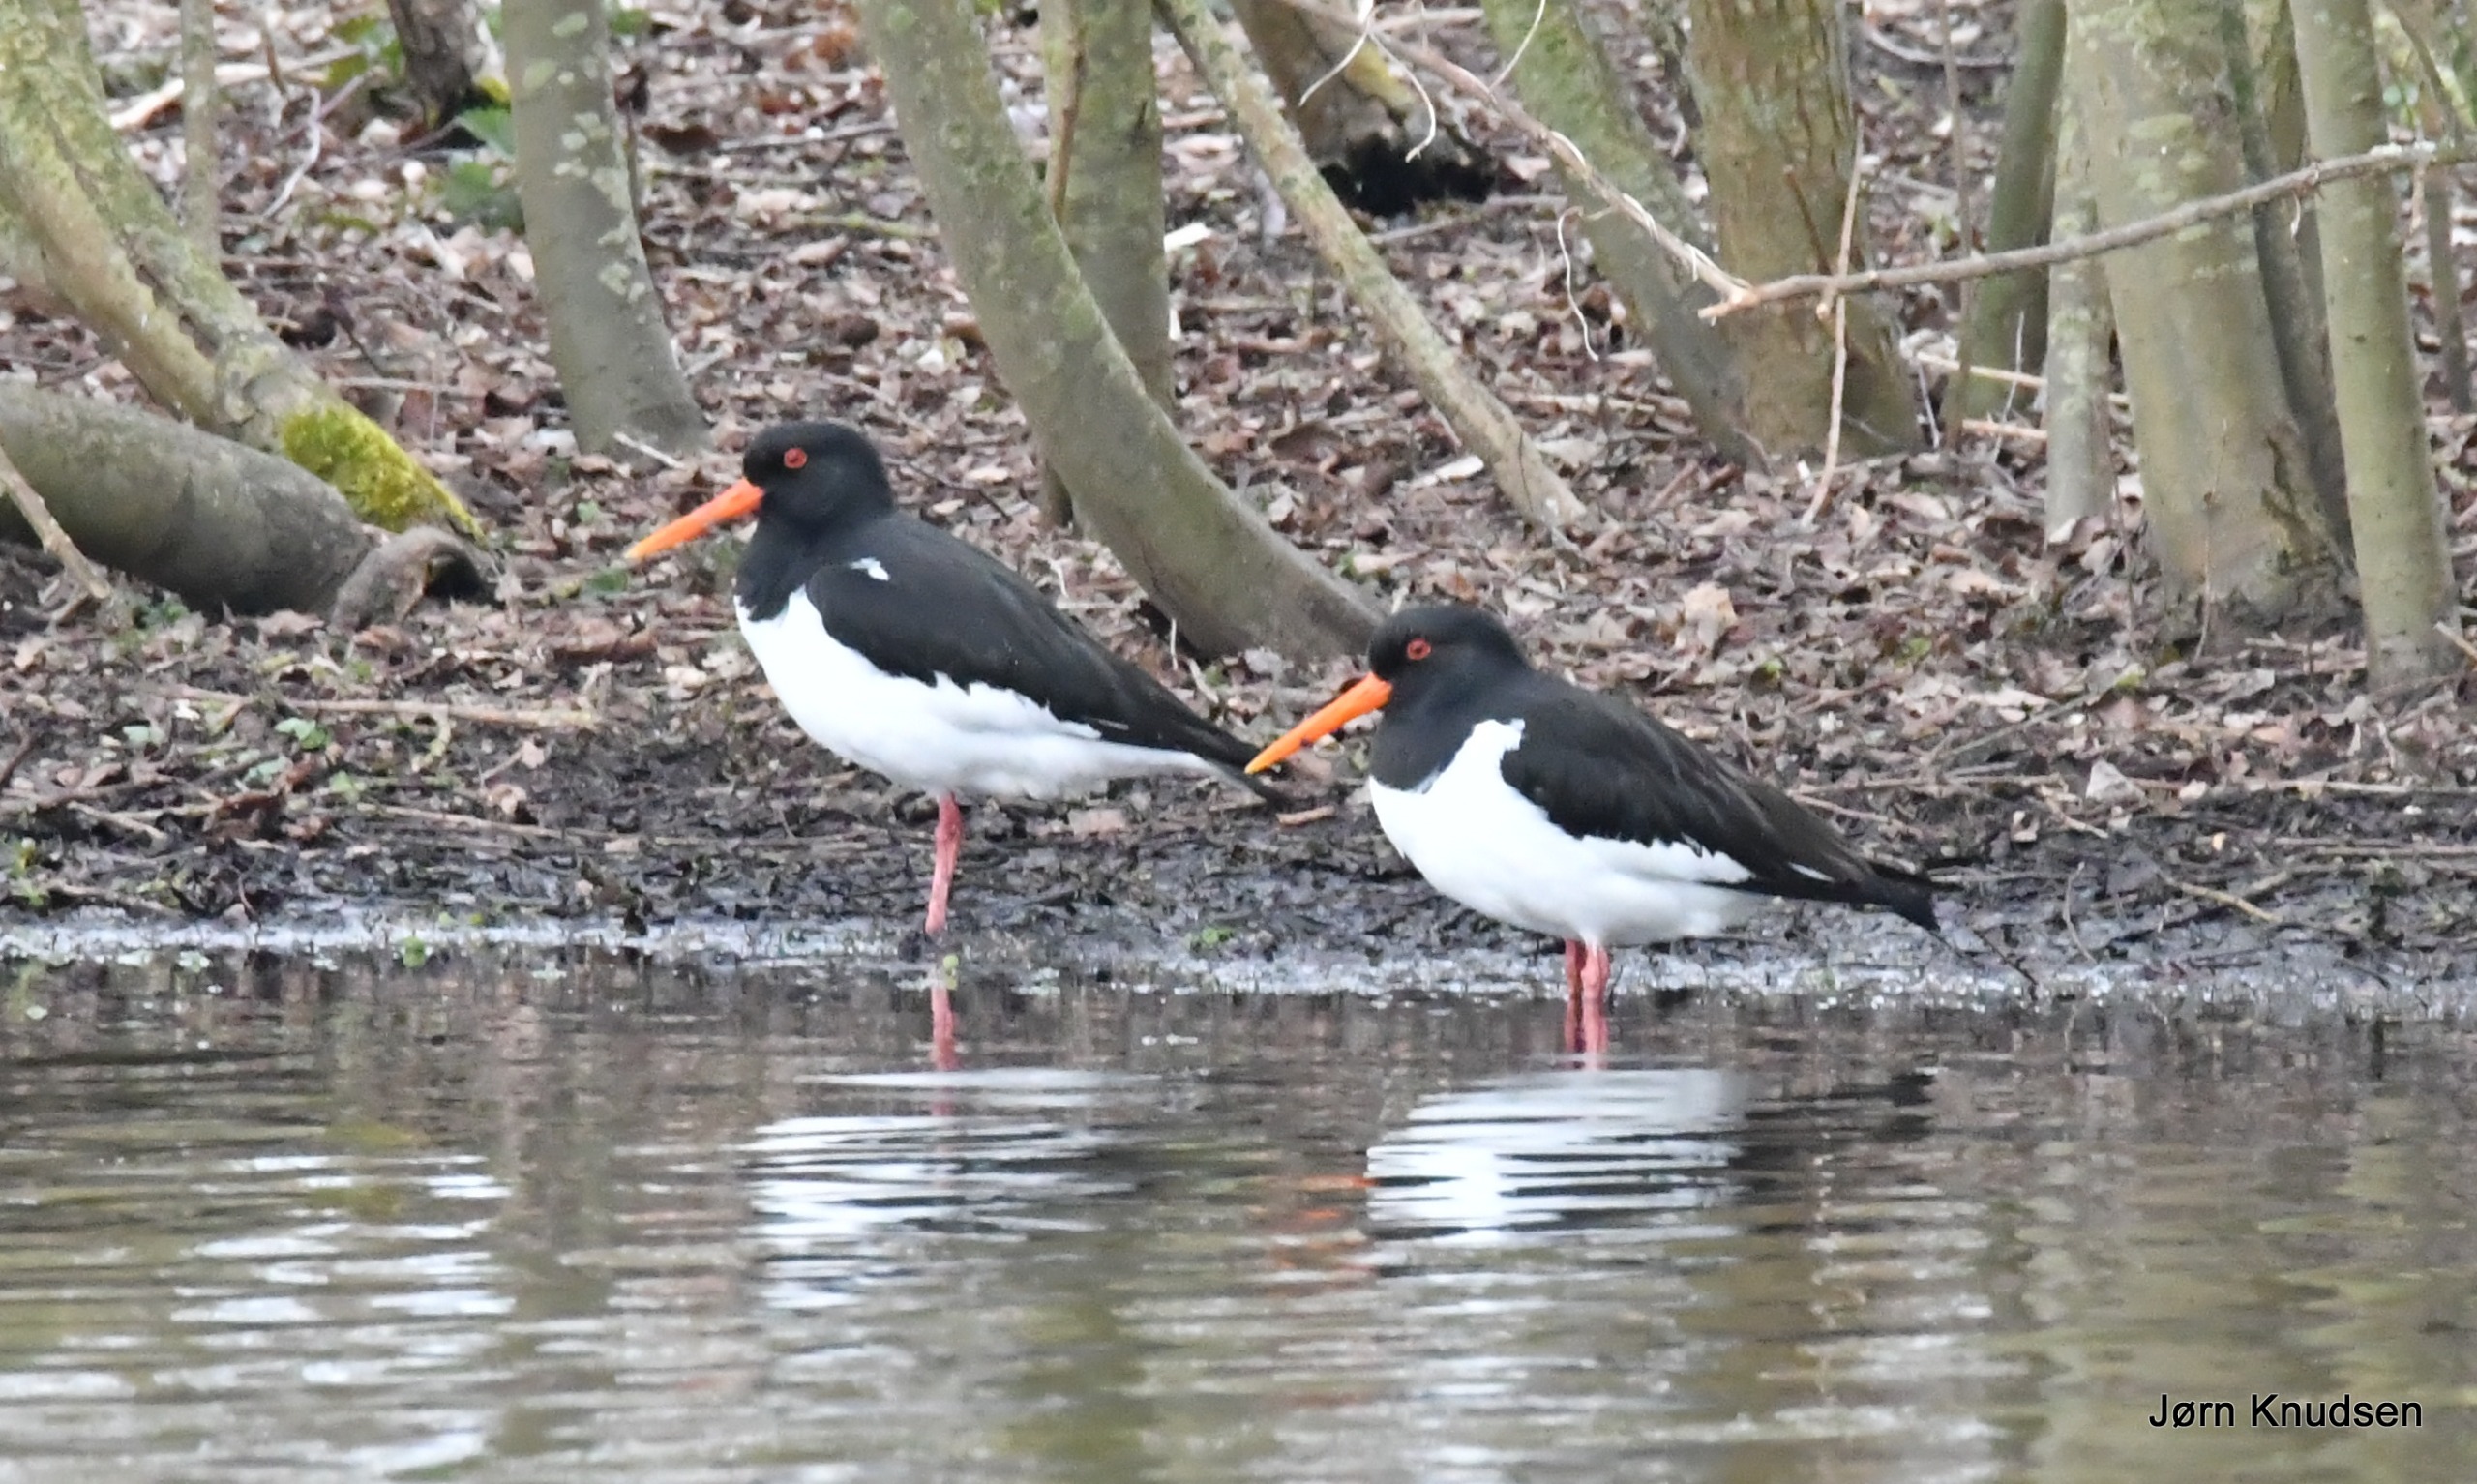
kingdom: Animalia
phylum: Chordata
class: Aves
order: Charadriiformes
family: Haematopodidae
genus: Haematopus
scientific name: Haematopus ostralegus
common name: Strandskade
